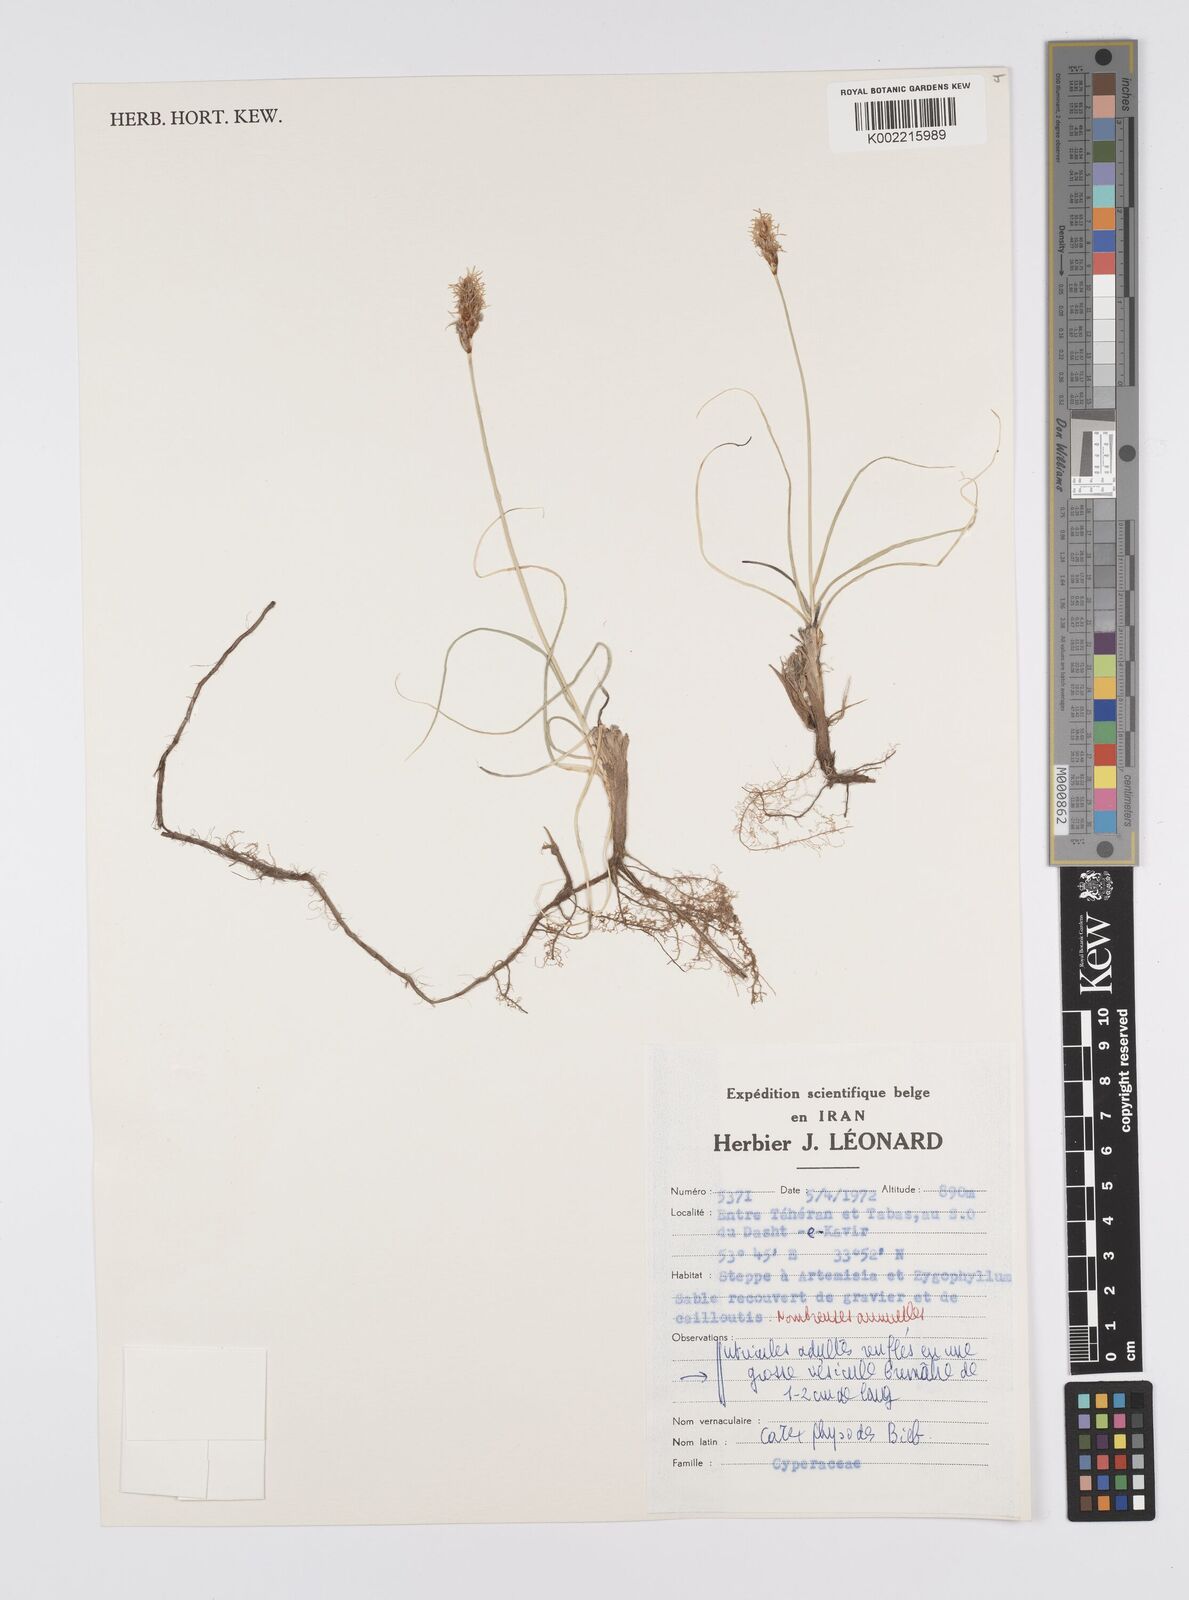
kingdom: Plantae
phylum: Tracheophyta
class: Liliopsida
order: Poales
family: Cyperaceae
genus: Carex
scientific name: Carex physodes
